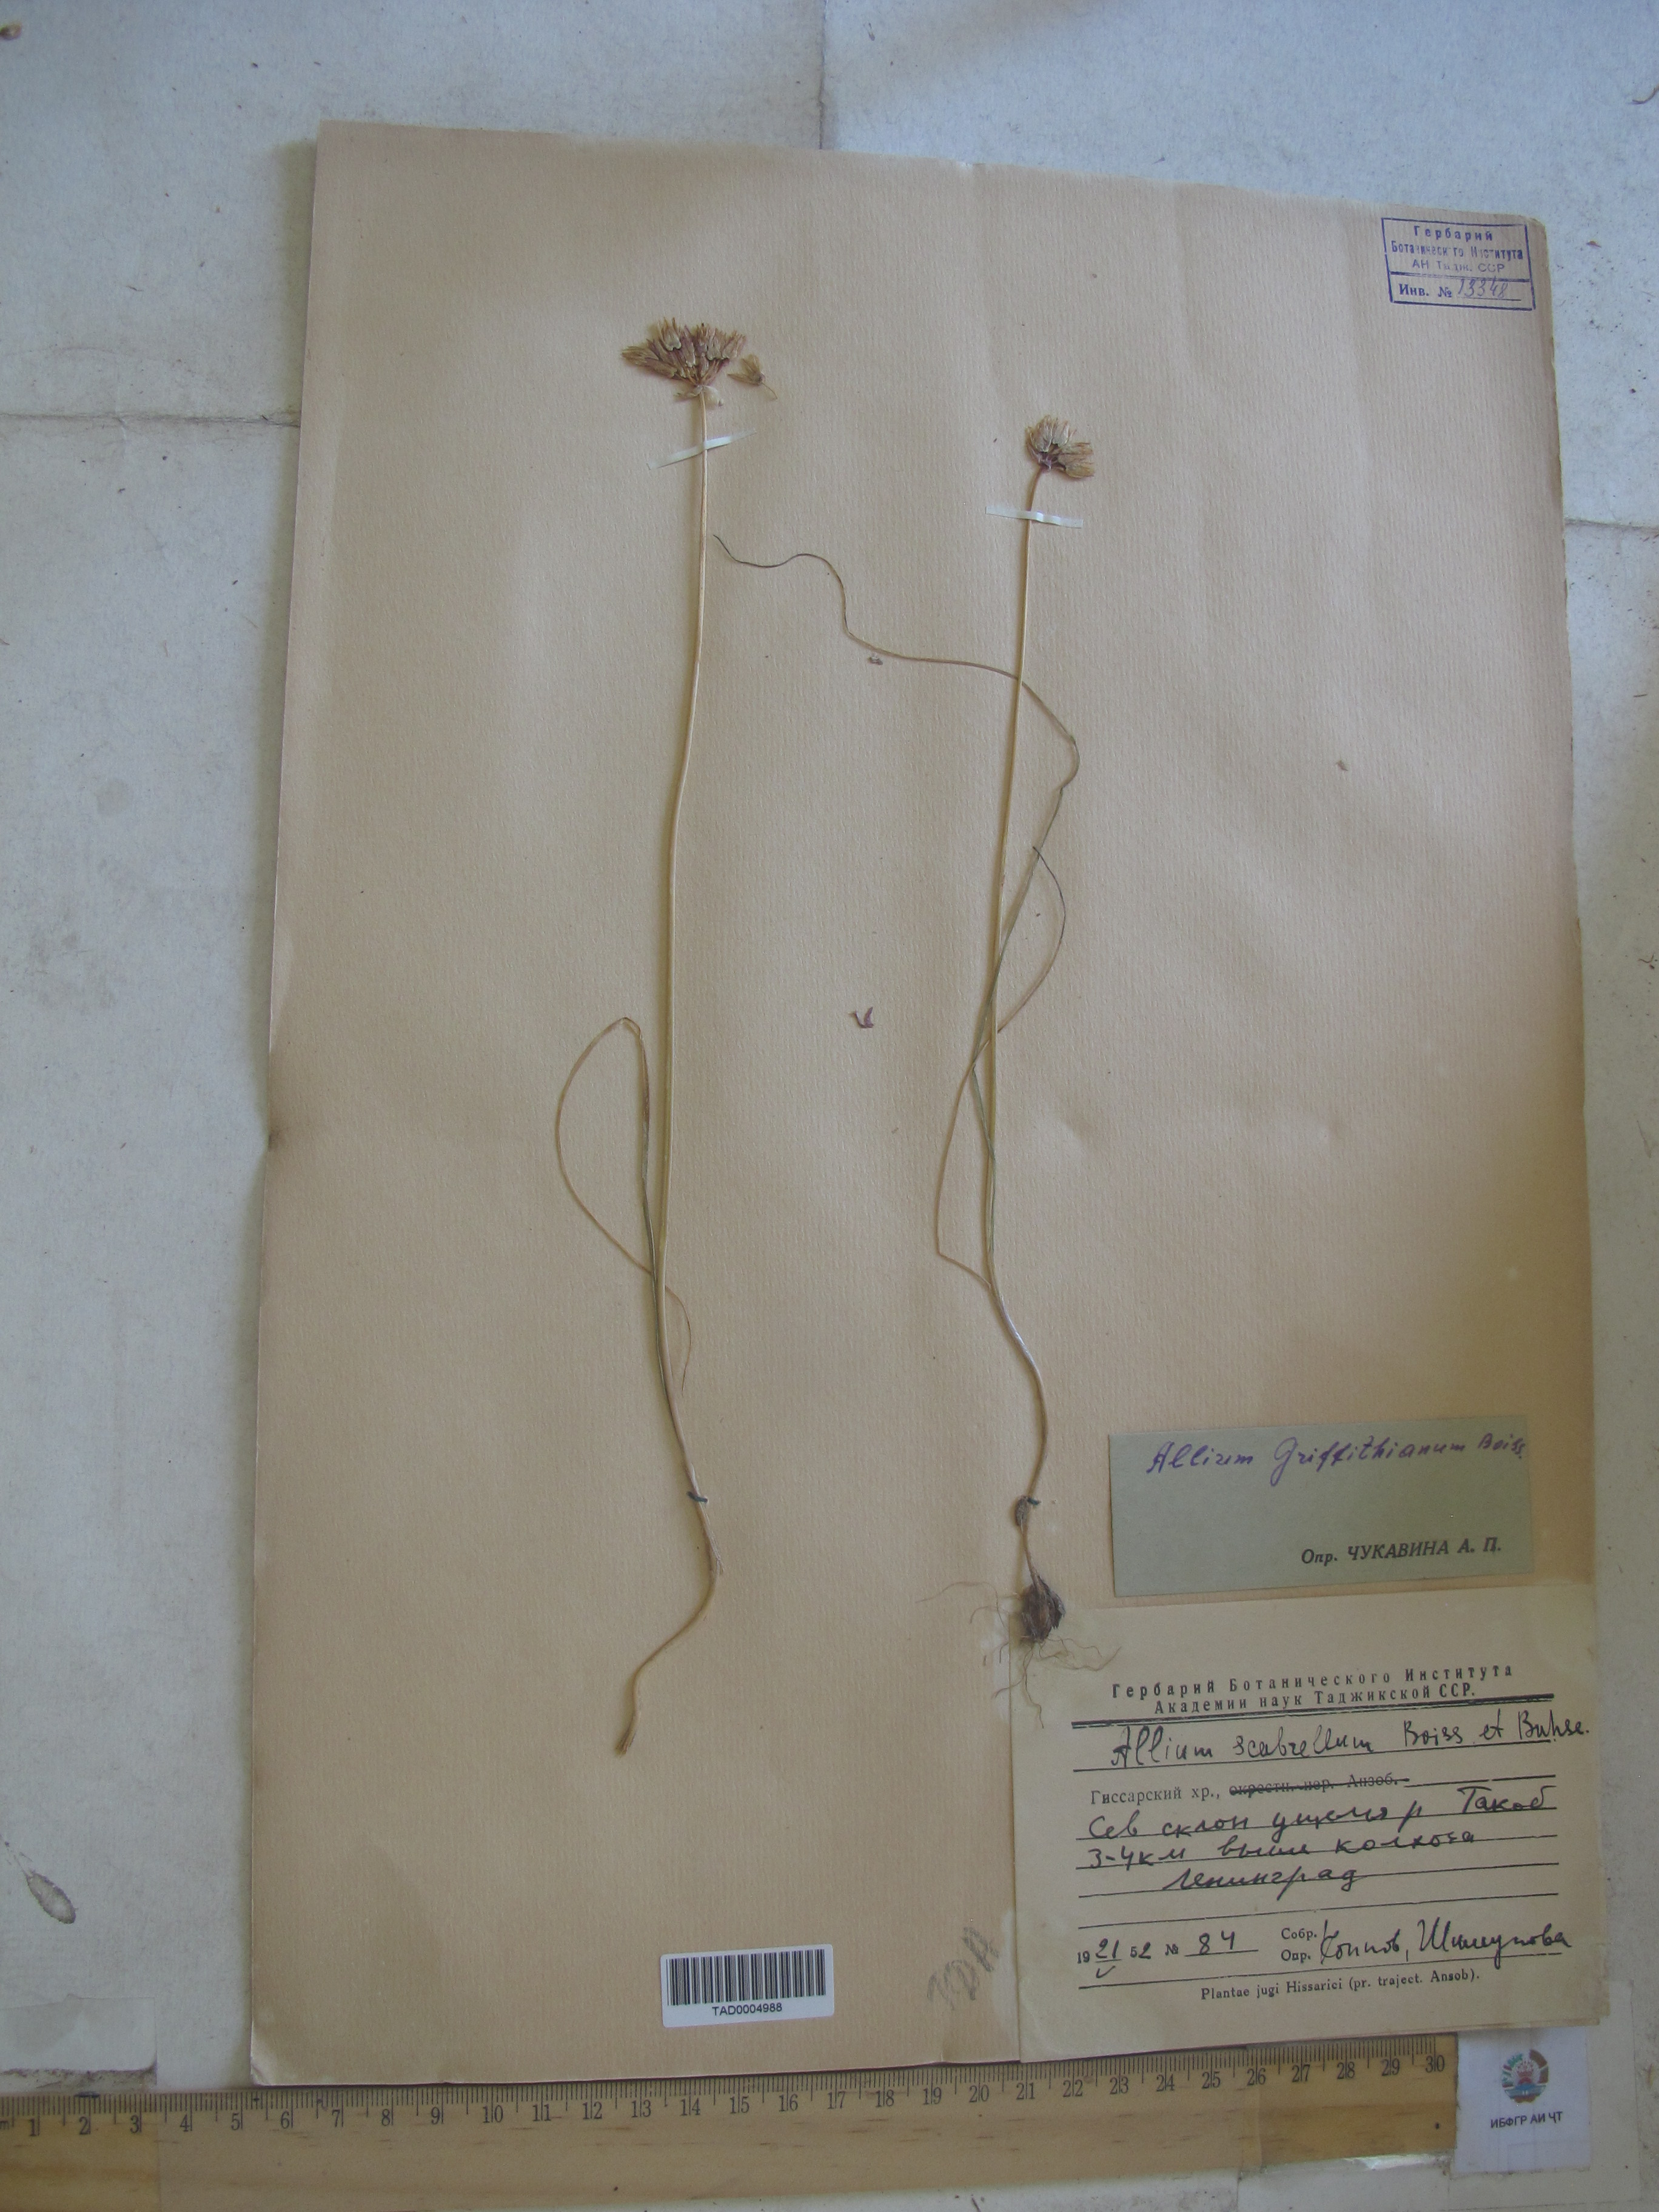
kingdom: Plantae
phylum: Tracheophyta
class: Liliopsida
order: Asparagales
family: Amaryllidaceae
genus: Allium
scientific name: Allium griffithianum
